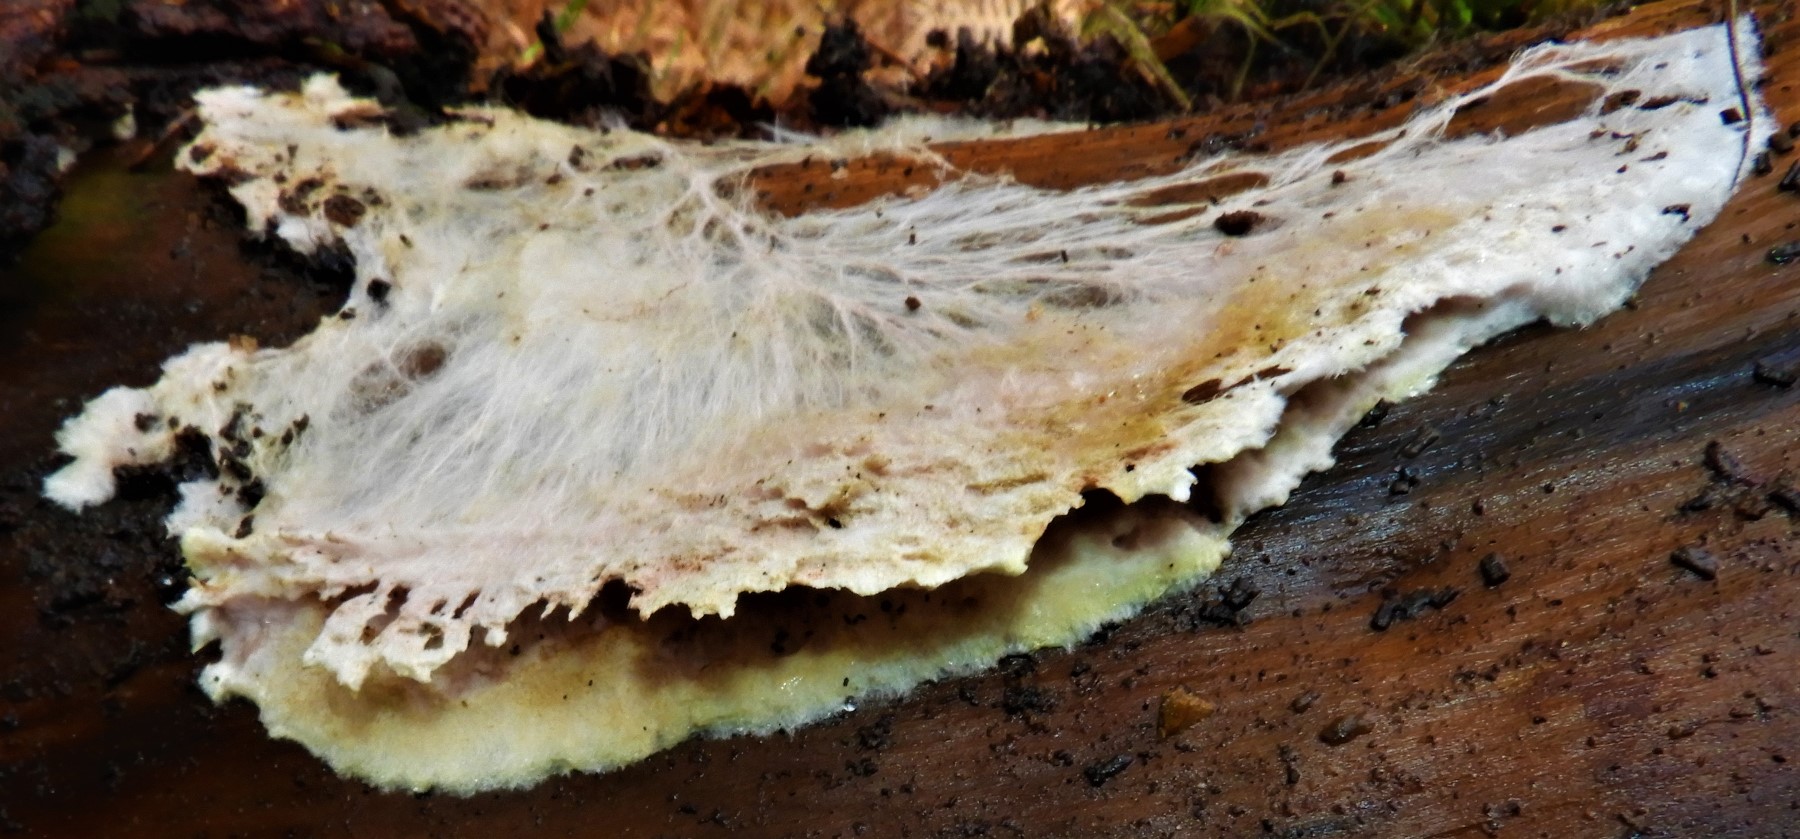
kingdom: Fungi
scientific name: Fungi
